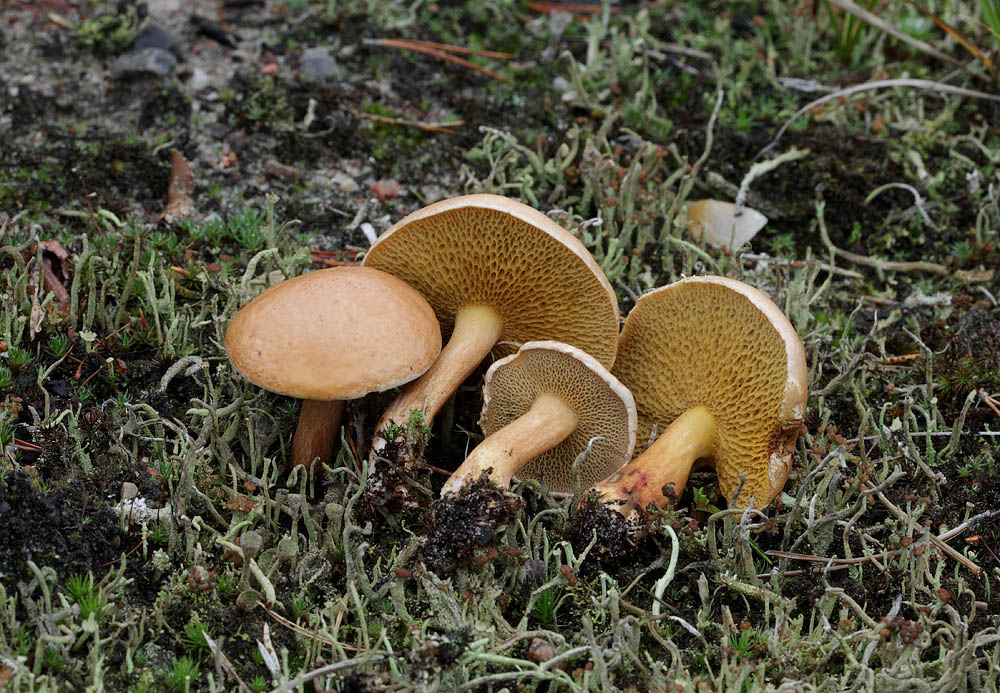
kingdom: Fungi
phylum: Basidiomycota
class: Agaricomycetes
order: Boletales
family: Suillaceae
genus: Suillus
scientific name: Suillus bovinus
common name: grovporet slimrørhat
